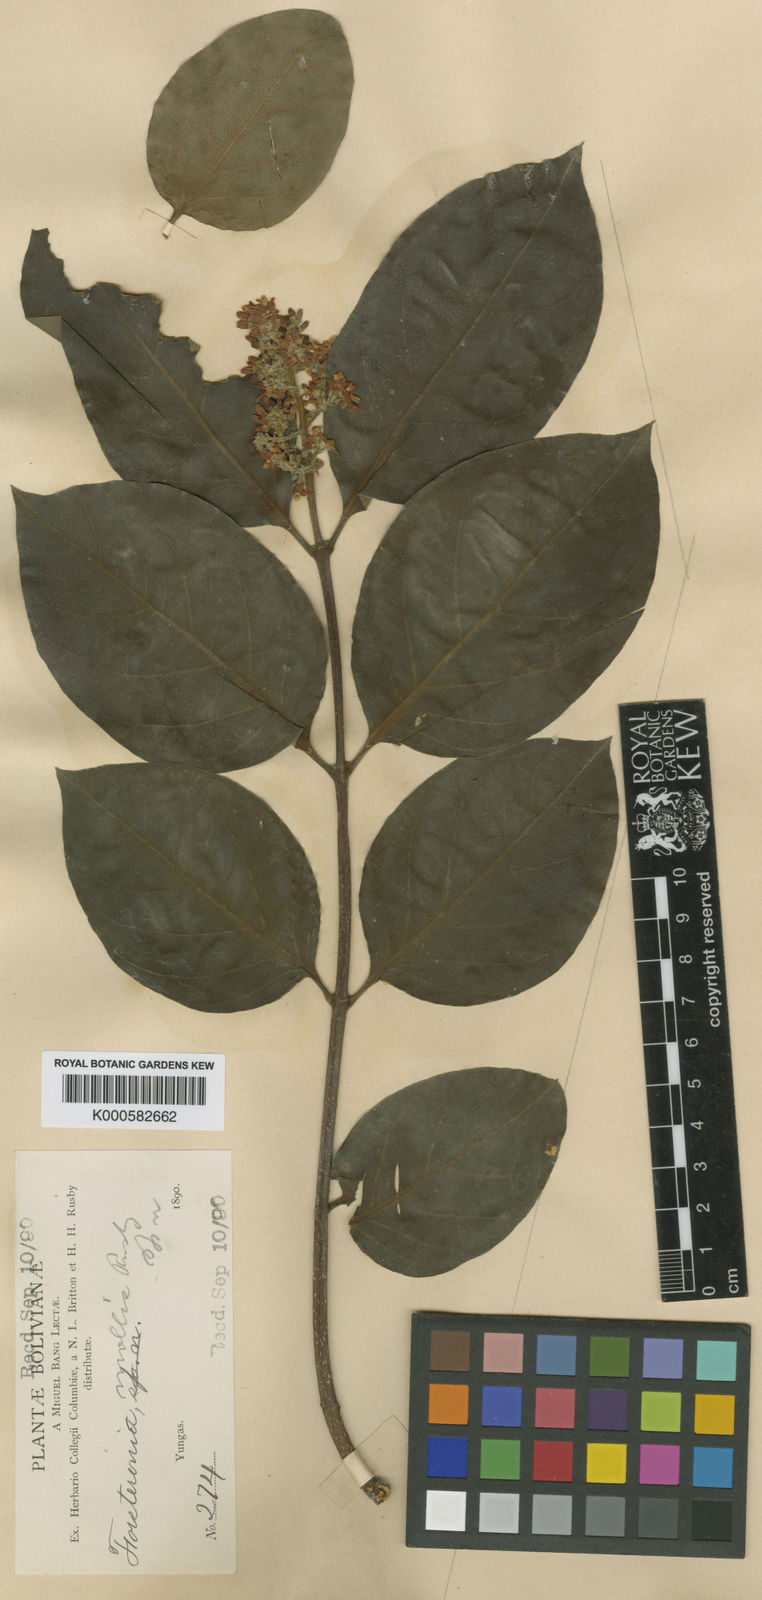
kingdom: Plantae
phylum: Tracheophyta
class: Magnoliopsida
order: Gentianales
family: Apocynaceae
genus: Forsteronia
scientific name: Forsteronia mollis
